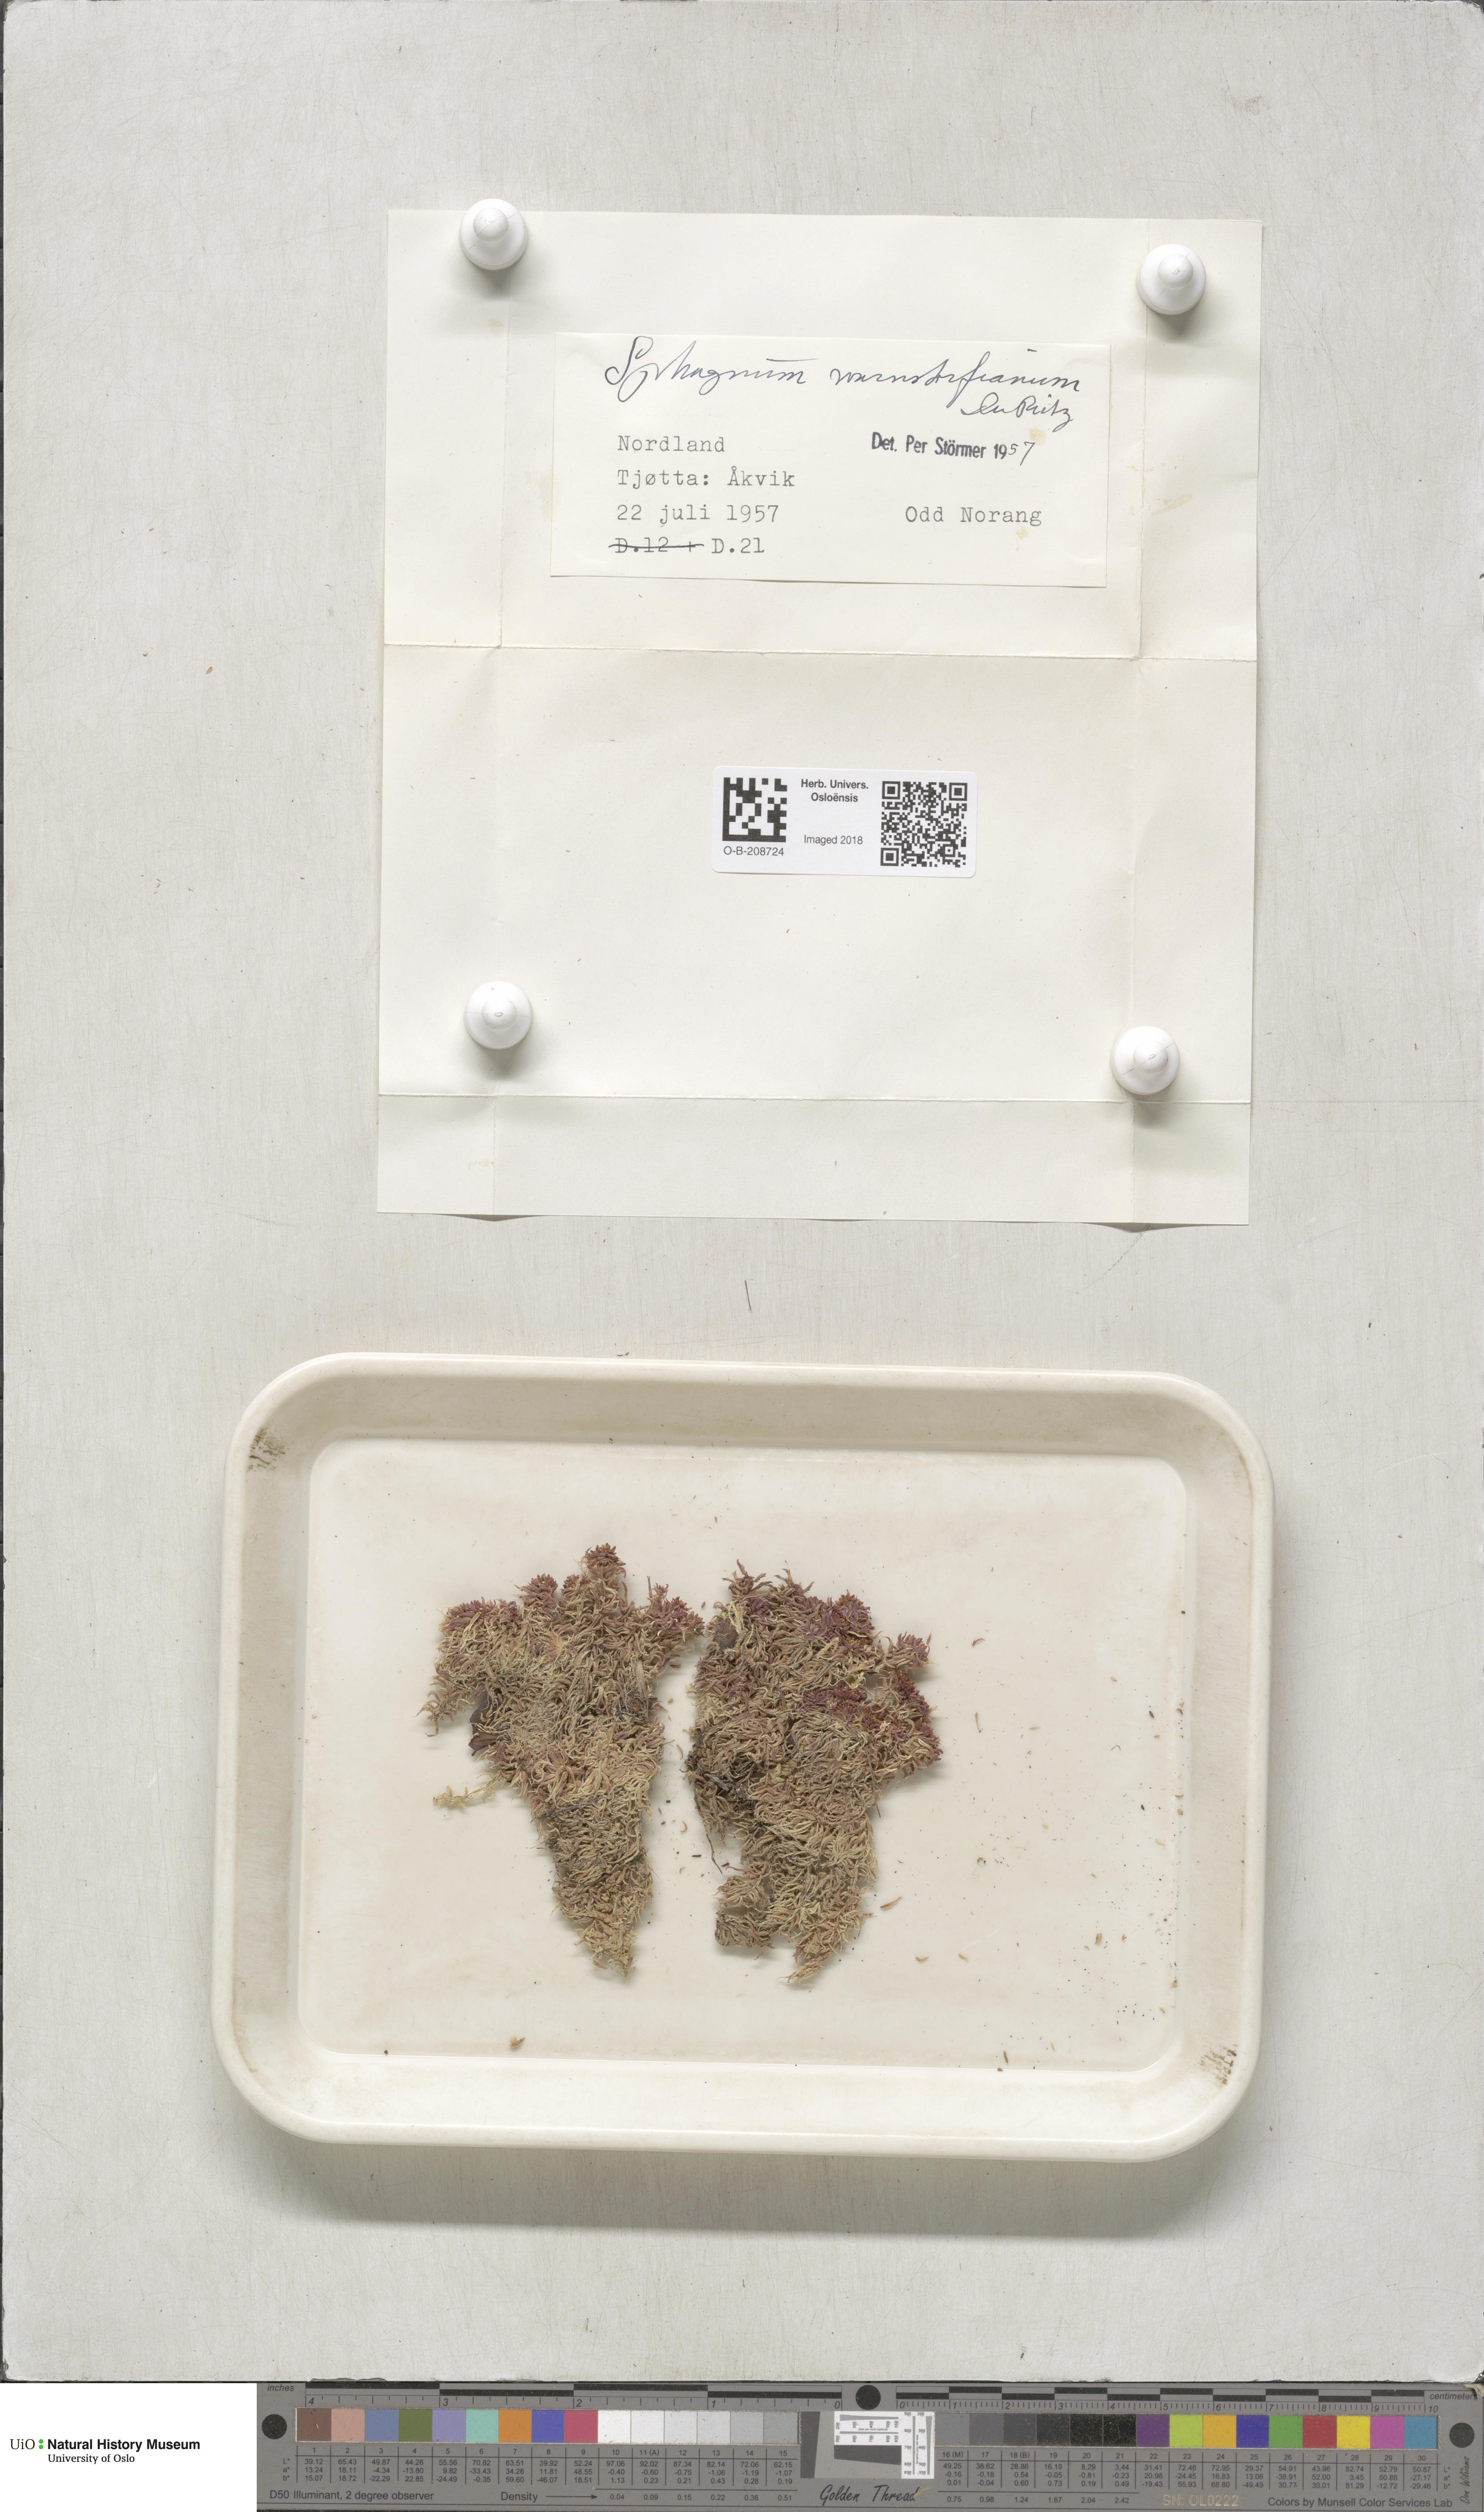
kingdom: Plantae
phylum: Bryophyta
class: Sphagnopsida
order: Sphagnales
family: Sphagnaceae
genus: Sphagnum
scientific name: Sphagnum warnstorfii
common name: Warnstorf's peat moss
